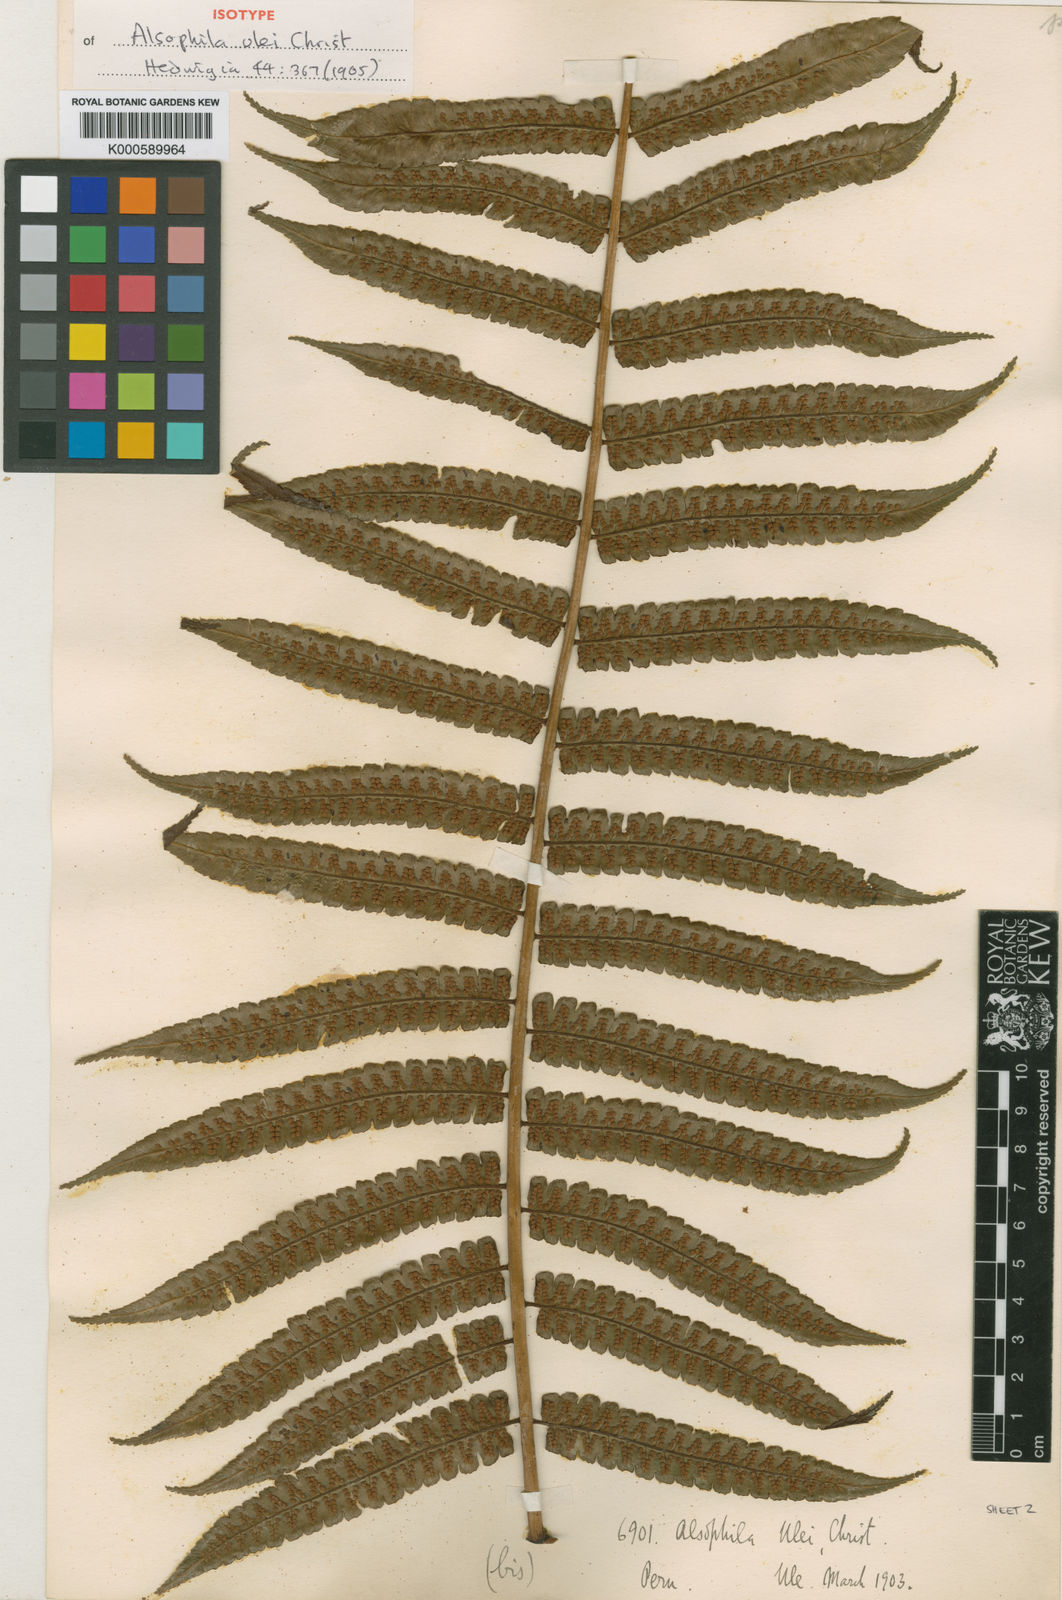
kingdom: Plantae
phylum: Tracheophyta
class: Polypodiopsida
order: Cyatheales
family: Cyatheaceae
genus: Cyathea
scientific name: Cyathea lechleri
